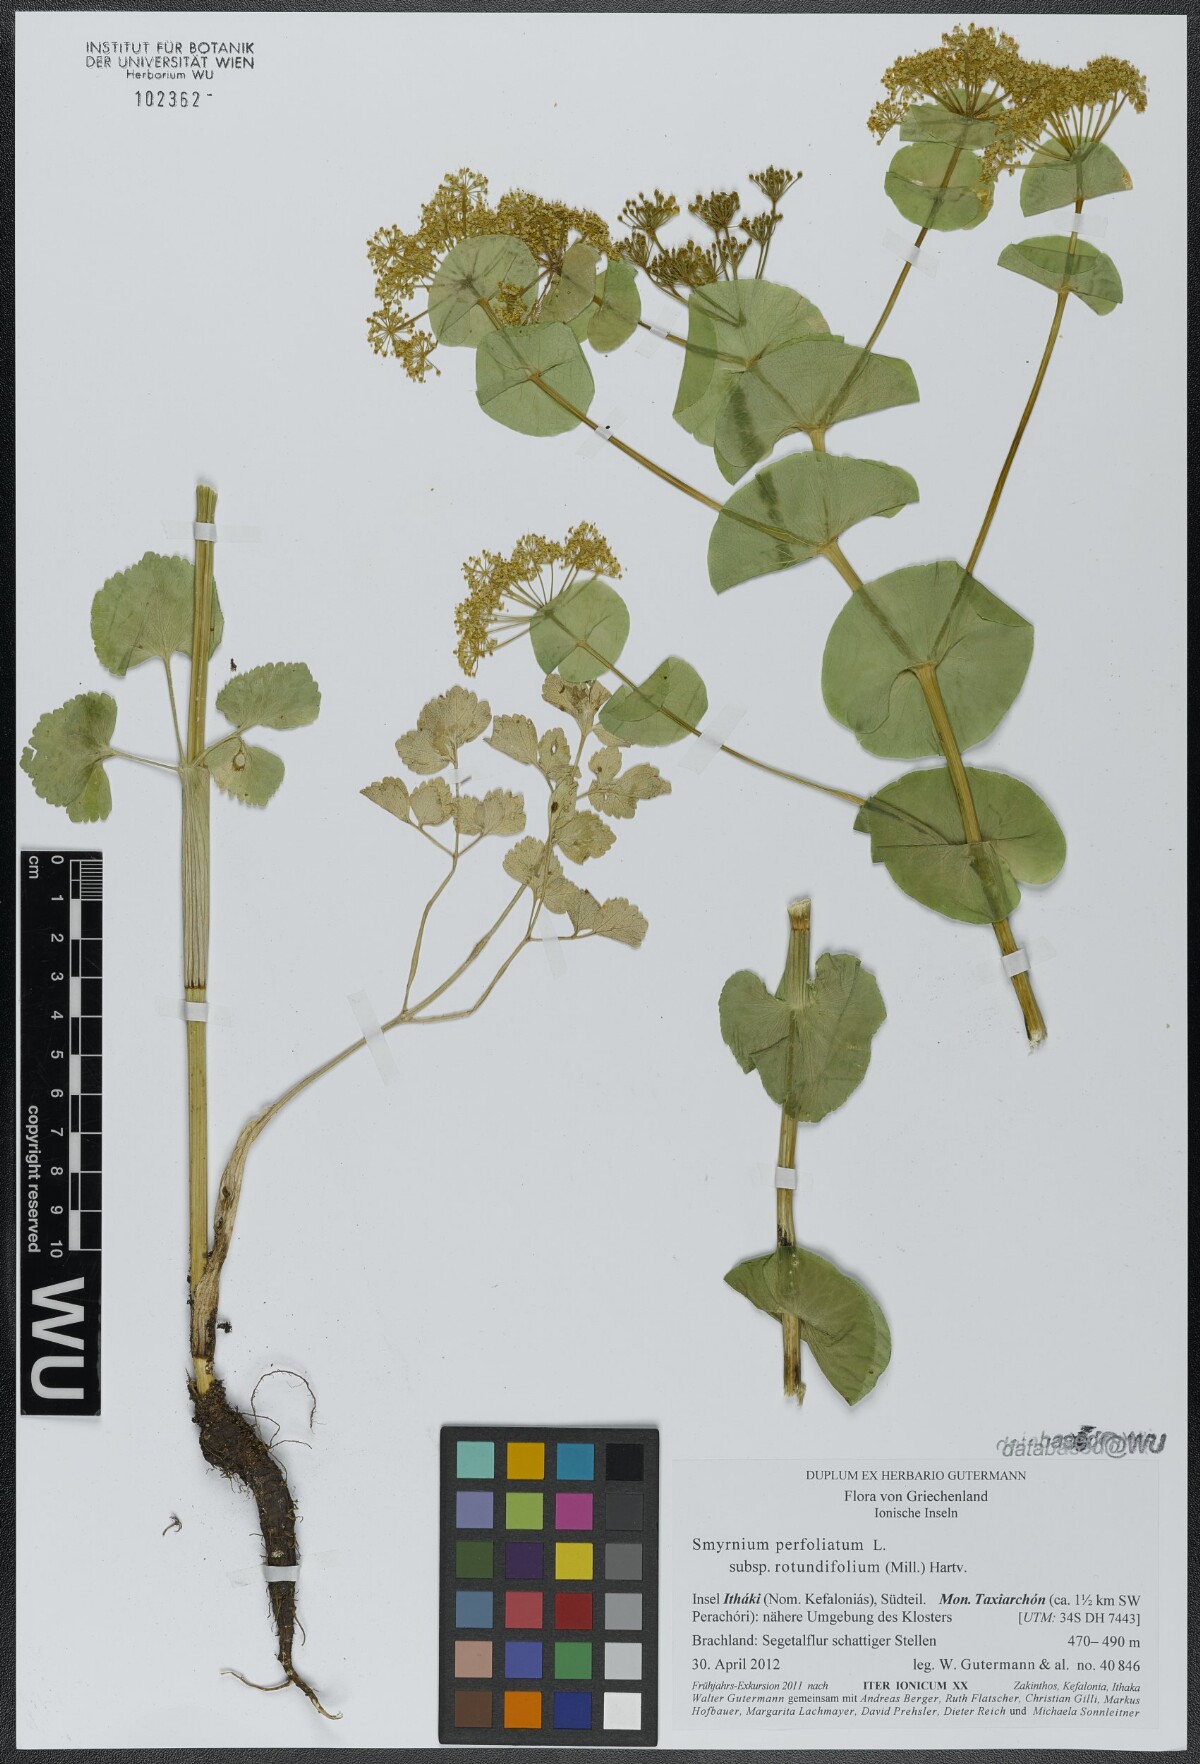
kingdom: Plantae
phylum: Tracheophyta
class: Magnoliopsida
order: Apiales
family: Apiaceae
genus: Smyrnium
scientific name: Smyrnium perfoliatum
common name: Perfoliate alexanders
